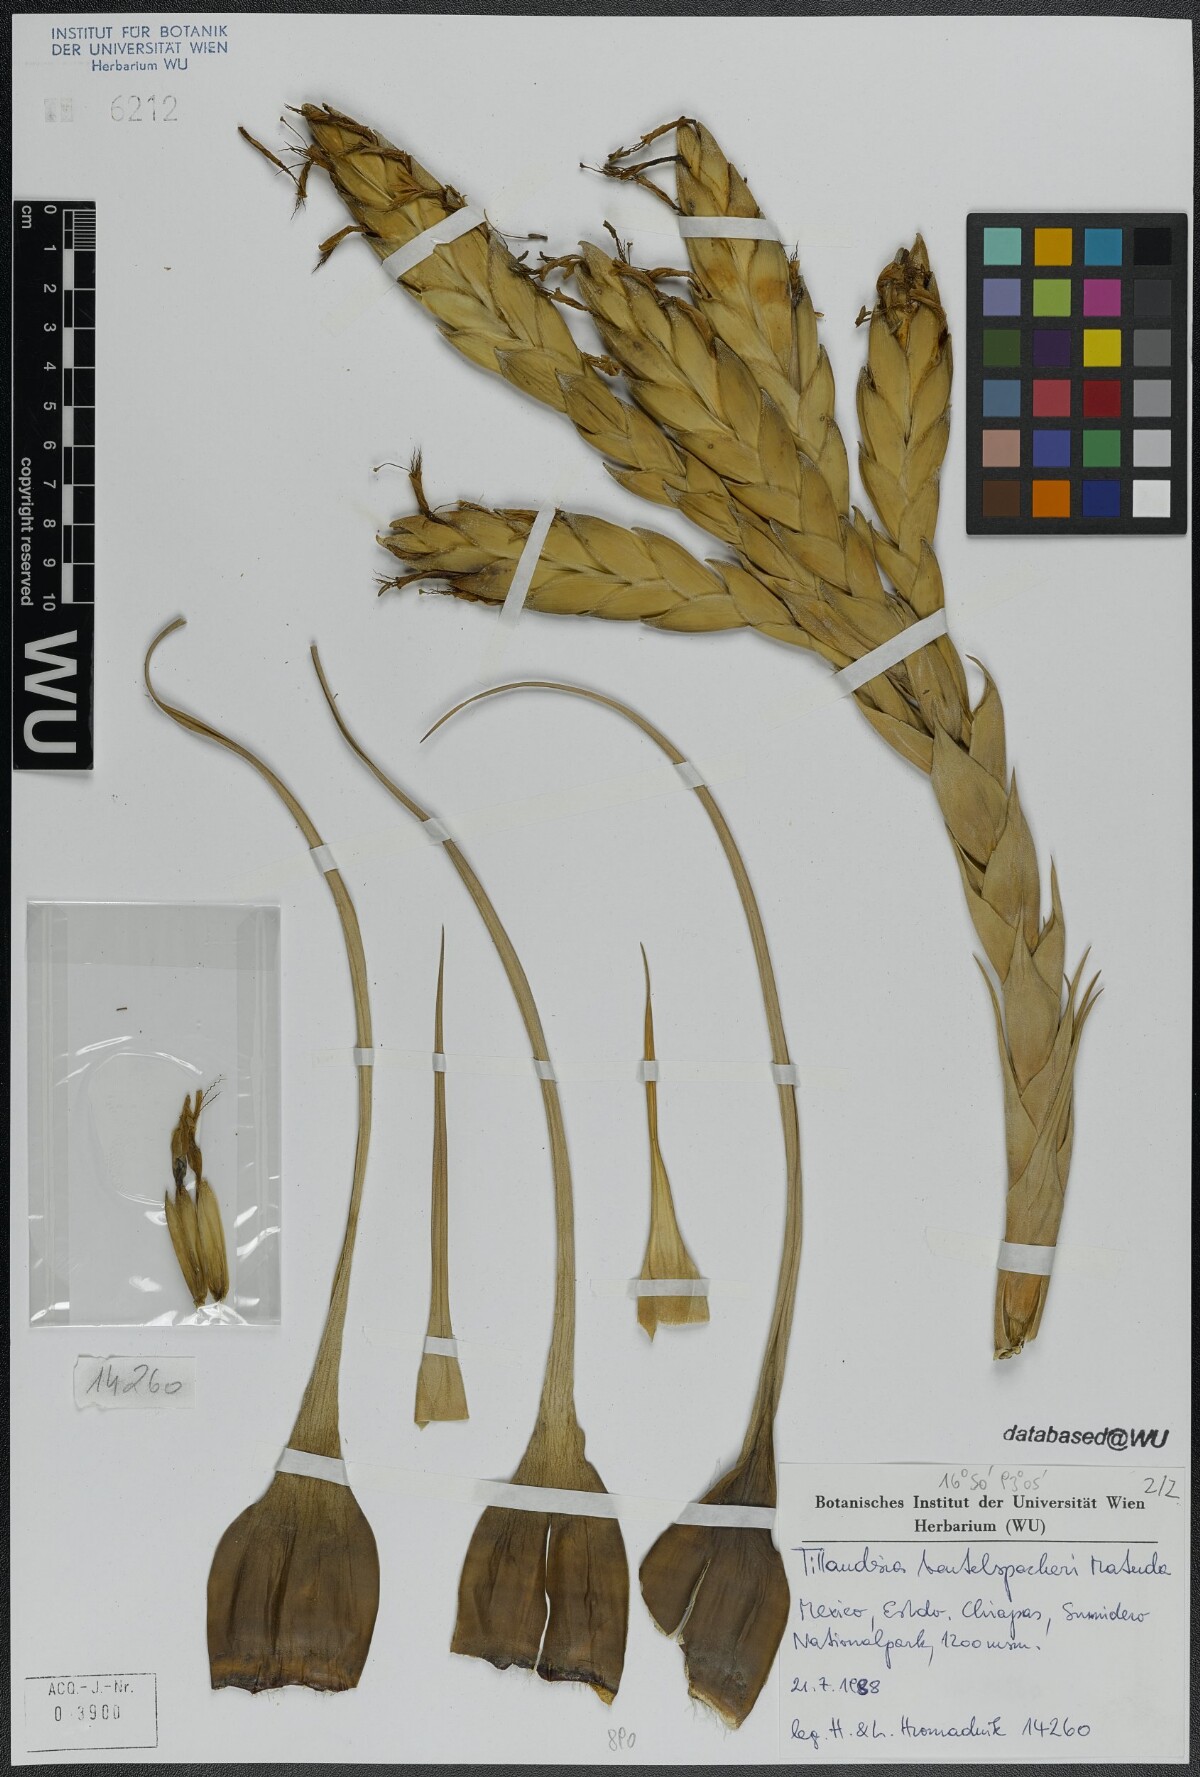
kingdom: Plantae
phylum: Tracheophyta
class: Liliopsida
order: Poales
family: Bromeliaceae
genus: Tillandsia
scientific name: Tillandsia fasciculata
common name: Giant airplant
